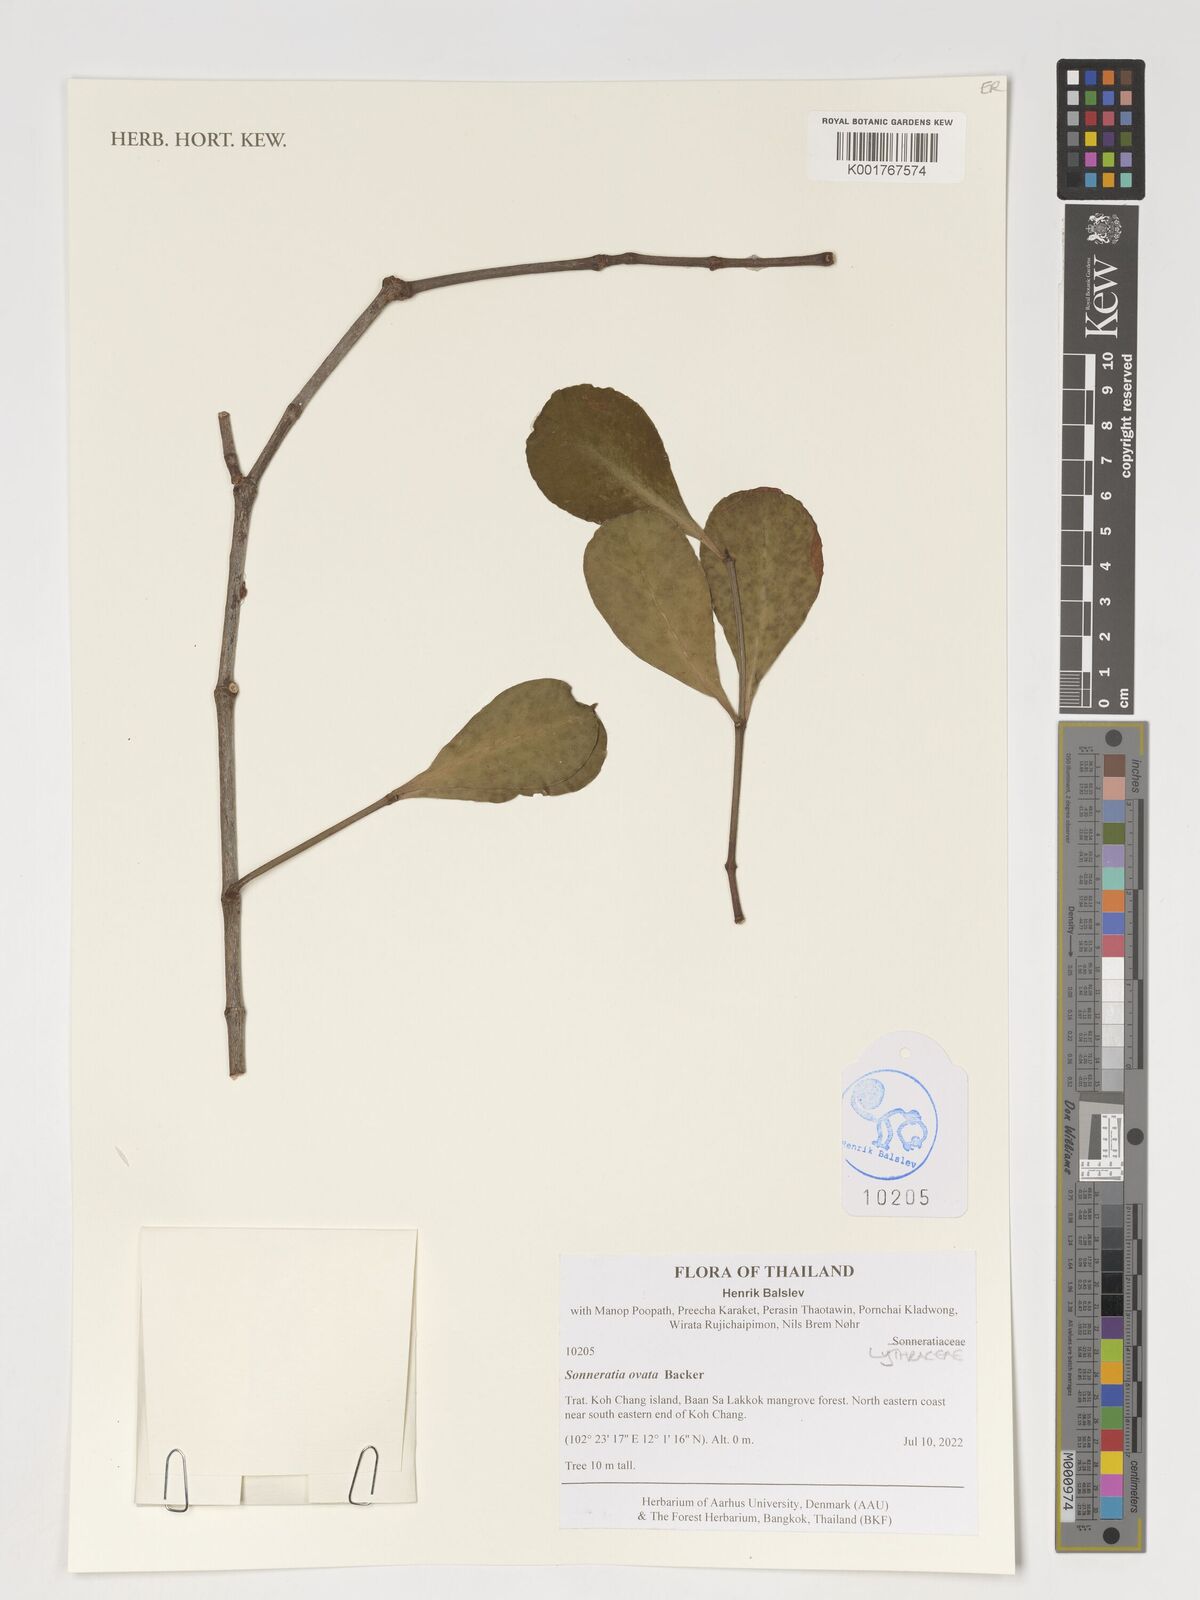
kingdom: Plantae
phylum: Tracheophyta
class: Magnoliopsida
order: Myrtales
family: Lythraceae
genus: Sonneratia
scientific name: Sonneratia ovata
